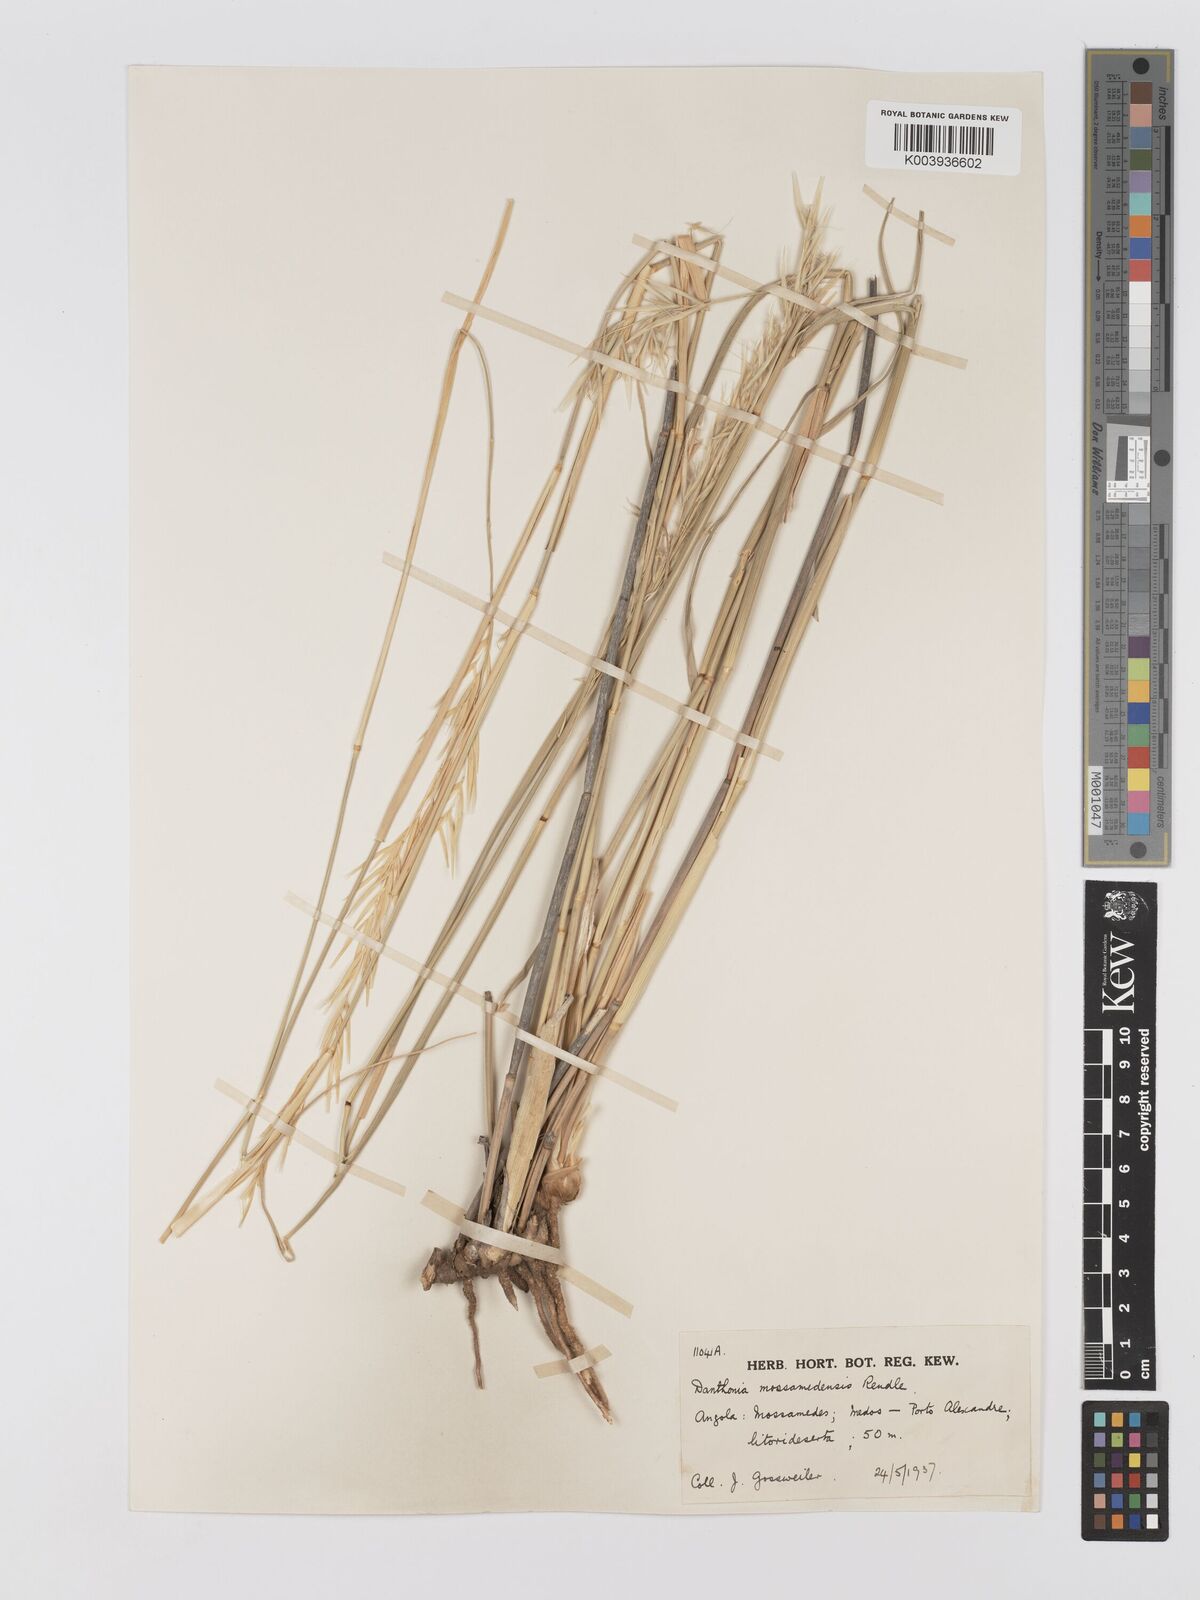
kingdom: Plantae
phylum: Tracheophyta
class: Liliopsida
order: Poales
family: Poaceae
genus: Centropodia
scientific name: Centropodia mossamedensis
